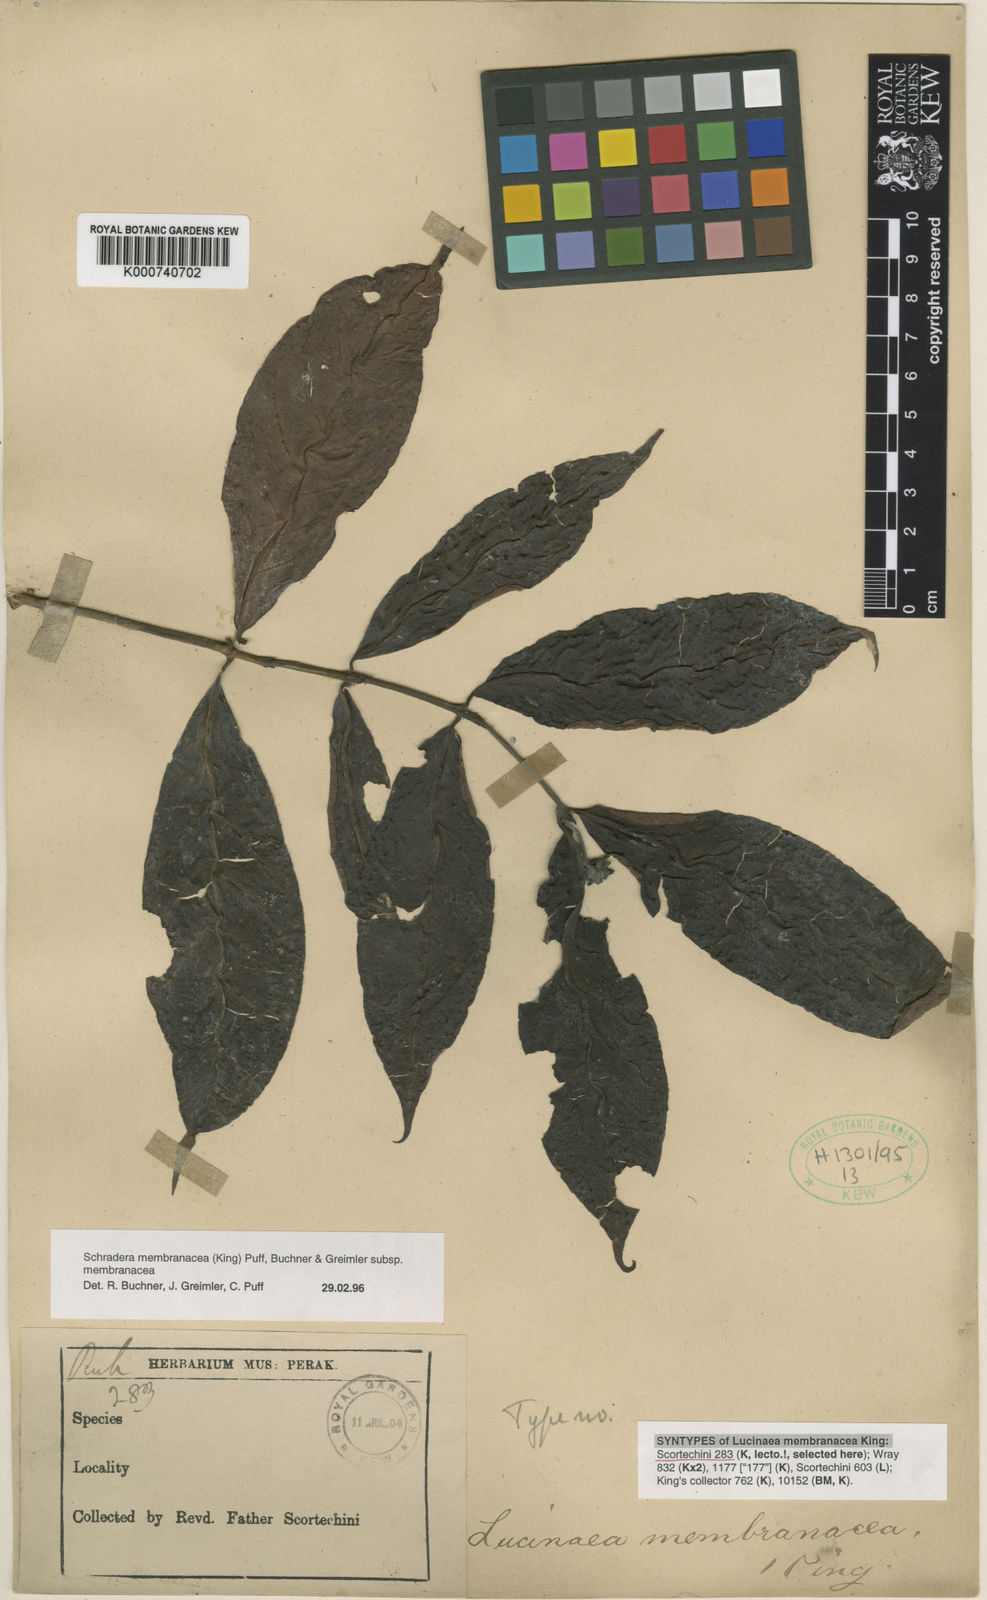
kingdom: Plantae
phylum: Tracheophyta
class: Magnoliopsida
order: Gentianales
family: Rubiaceae
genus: Schradera
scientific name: Schradera membranacea
